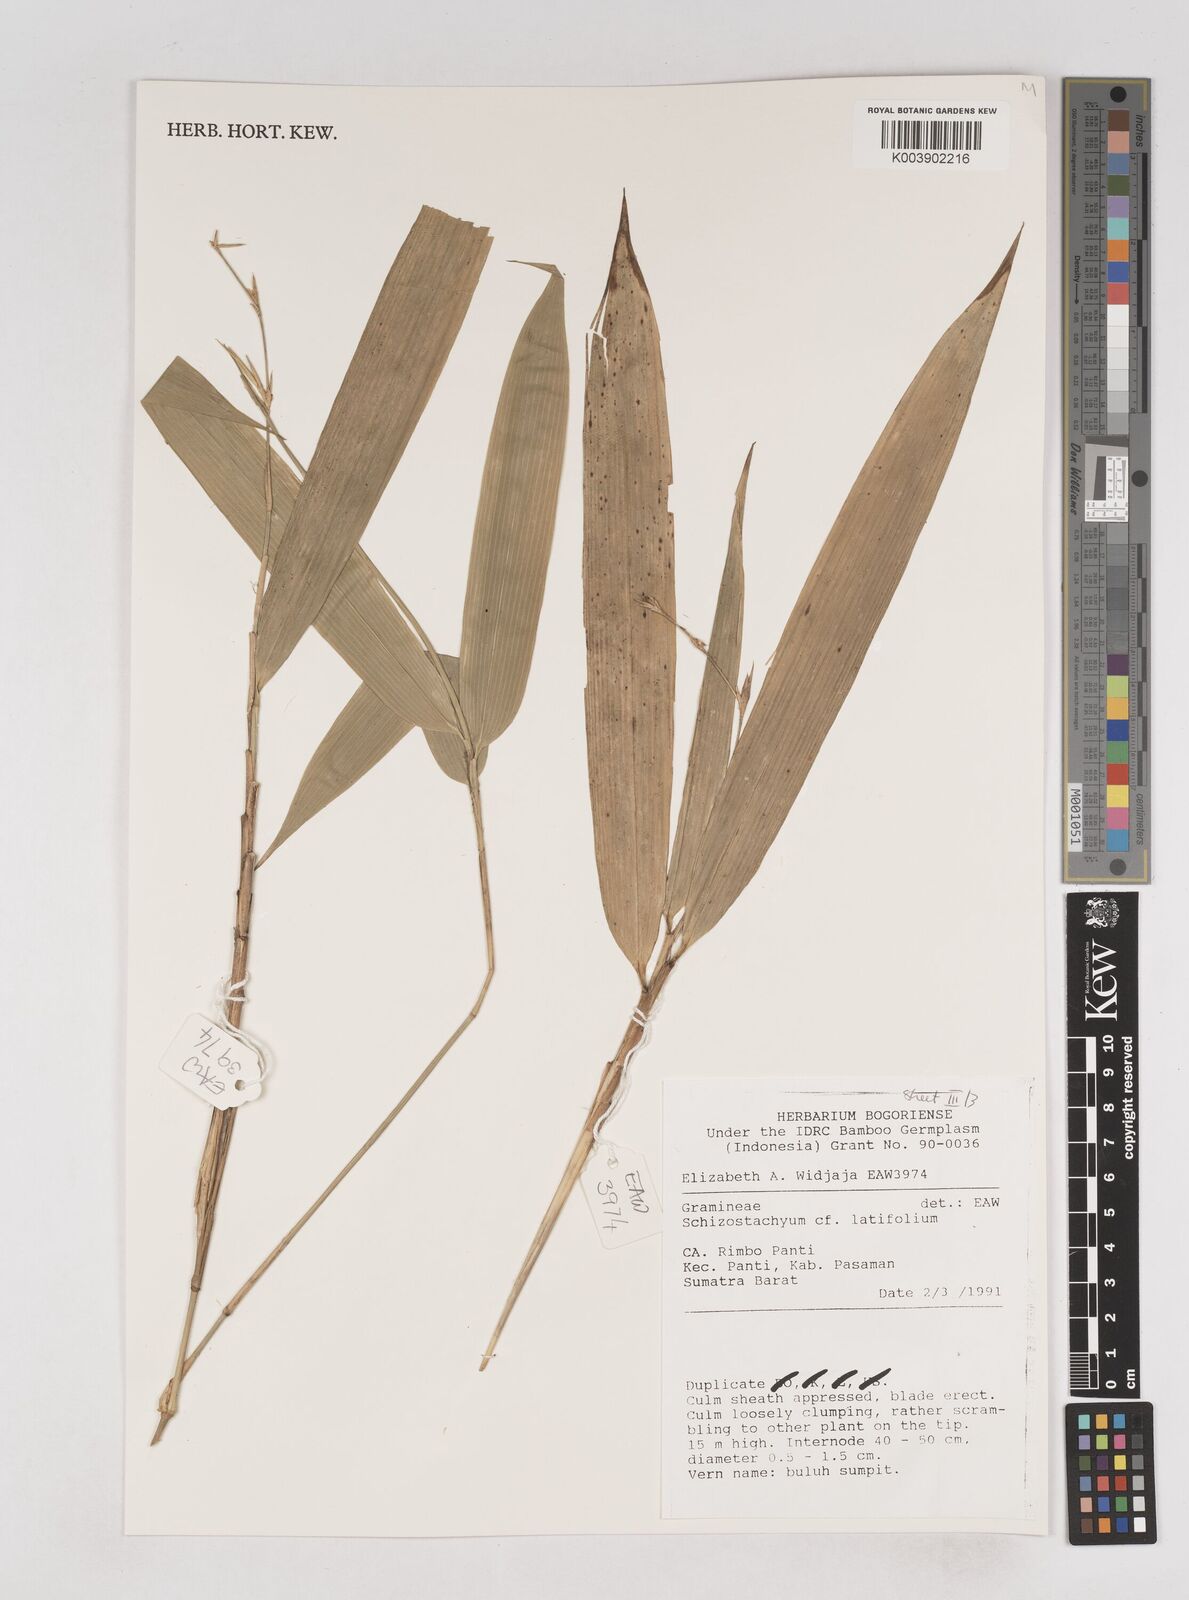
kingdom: Plantae
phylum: Tracheophyta
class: Liliopsida
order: Poales
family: Poaceae
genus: Schizostachyum
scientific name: Schizostachyum latifolium
